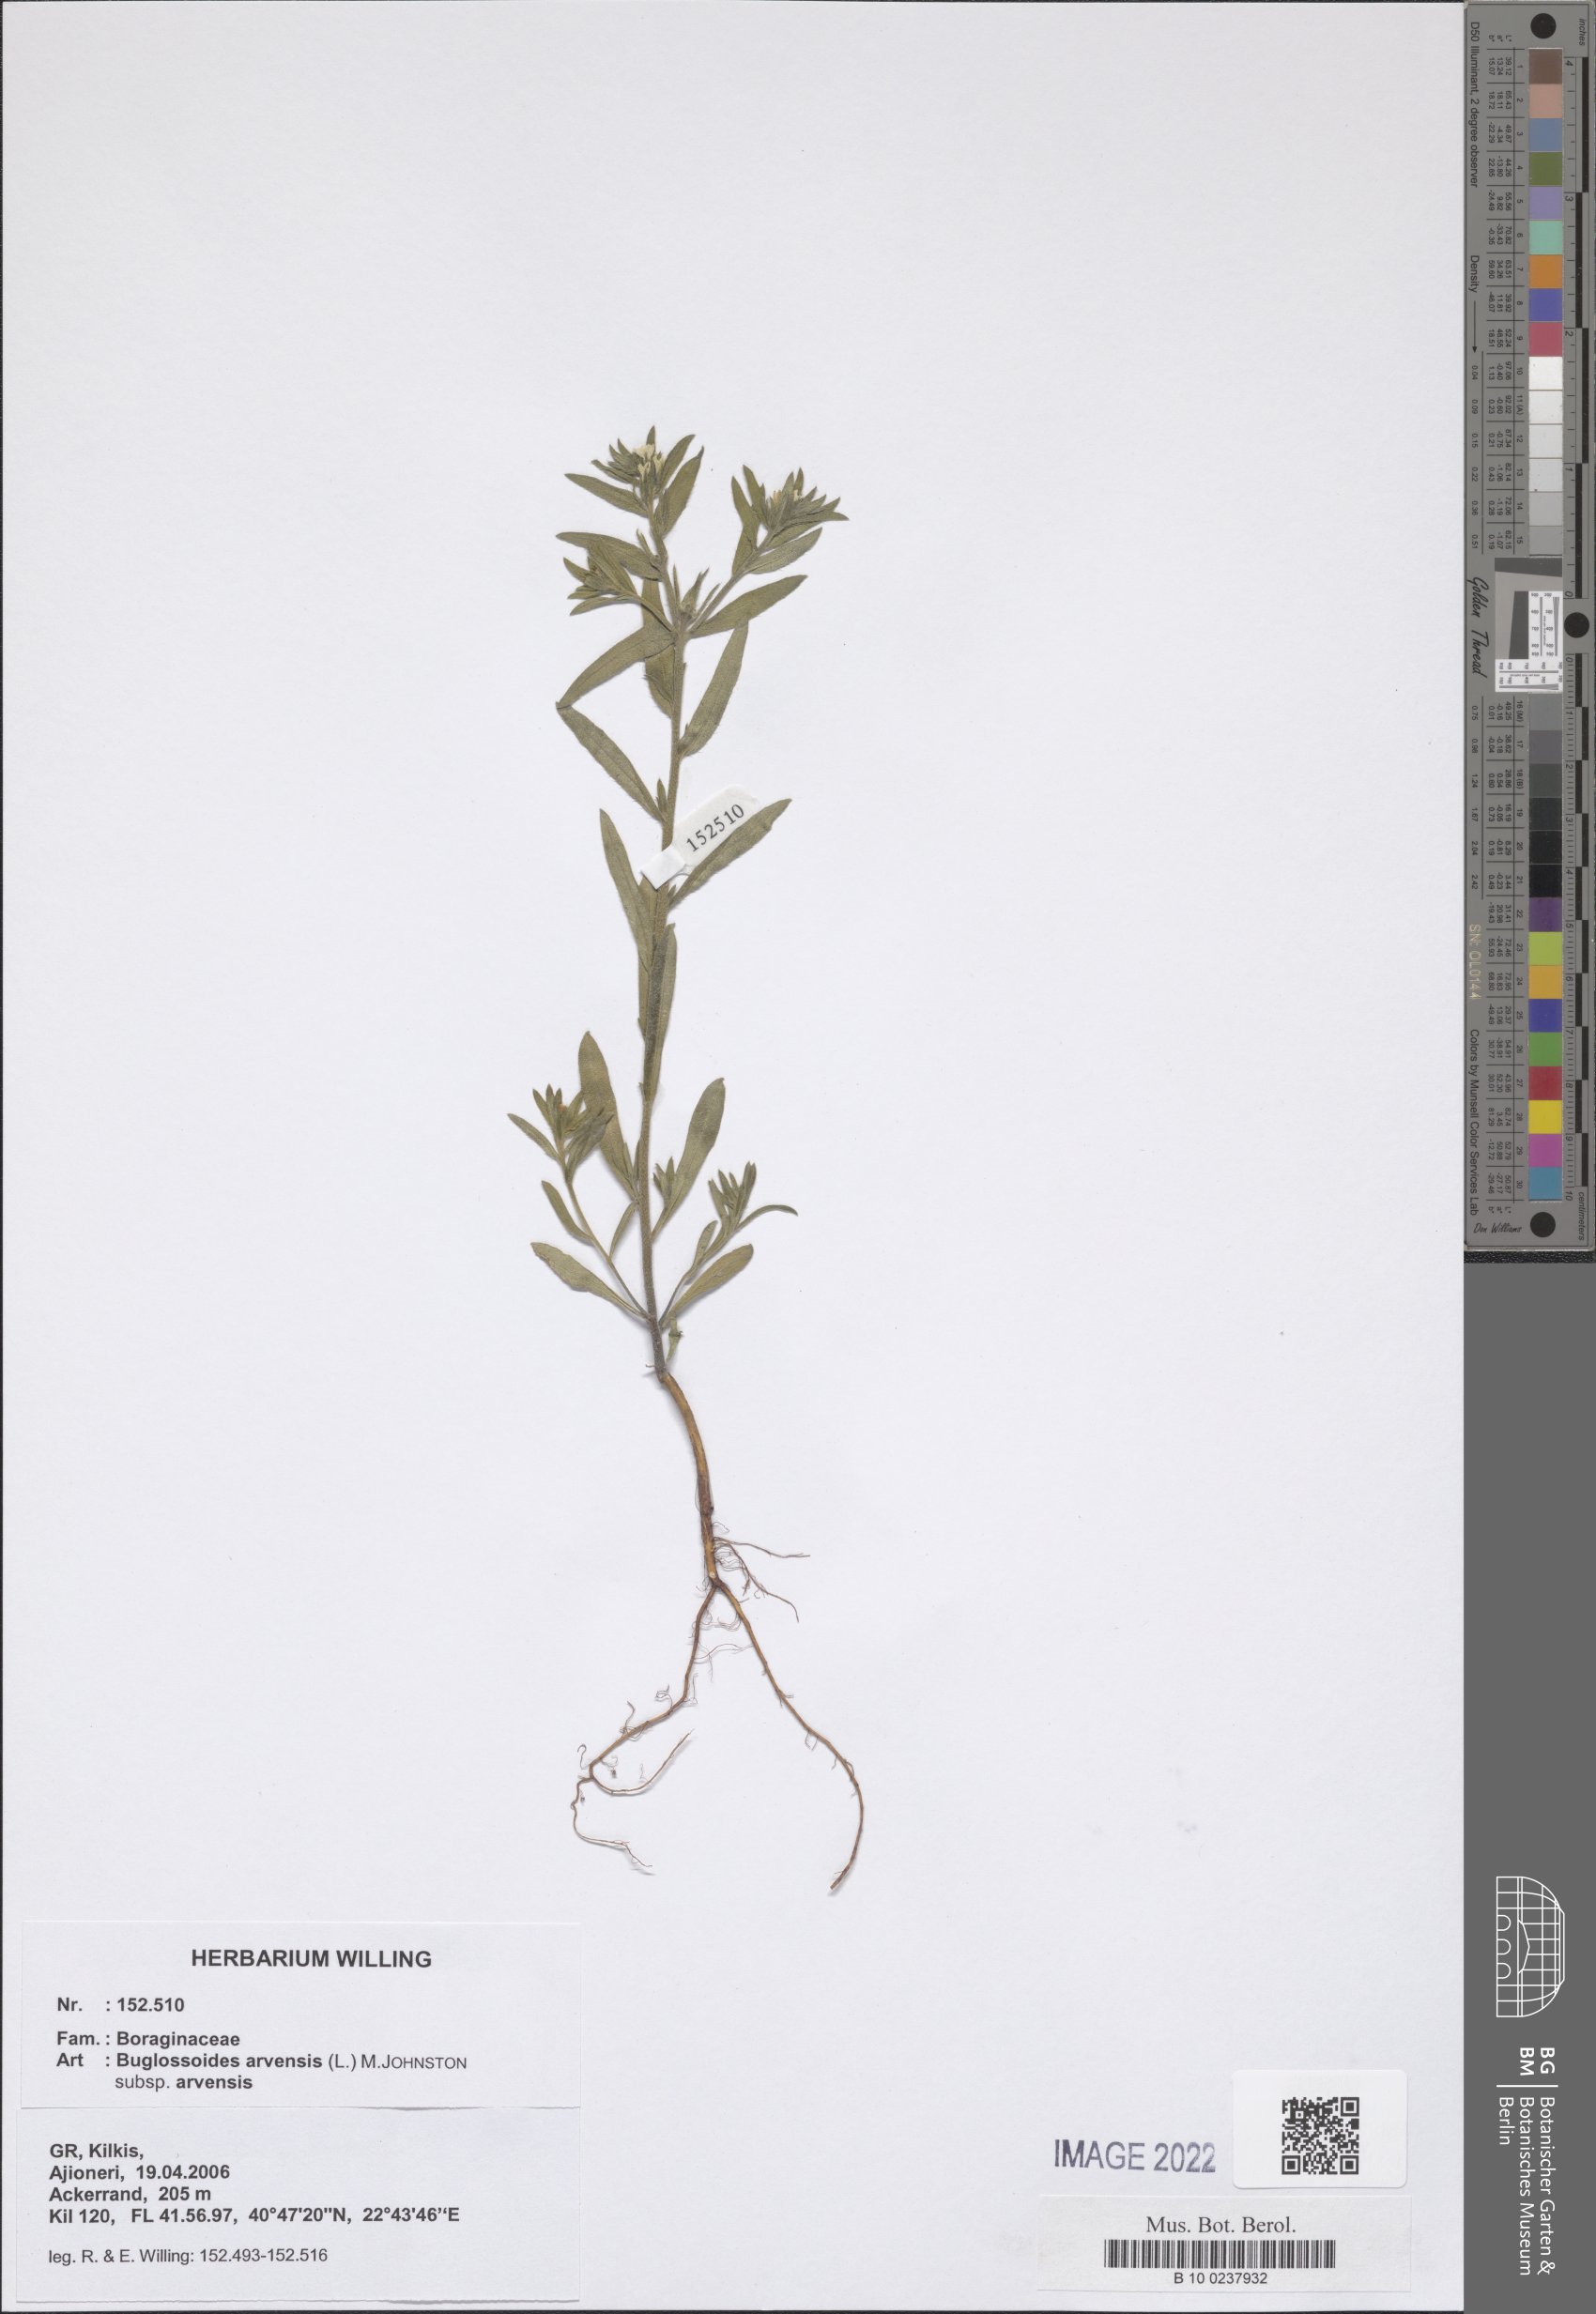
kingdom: Plantae
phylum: Tracheophyta
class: Magnoliopsida
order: Boraginales
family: Boraginaceae
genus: Buglossoides
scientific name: Buglossoides arvensis
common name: Corn gromwell
